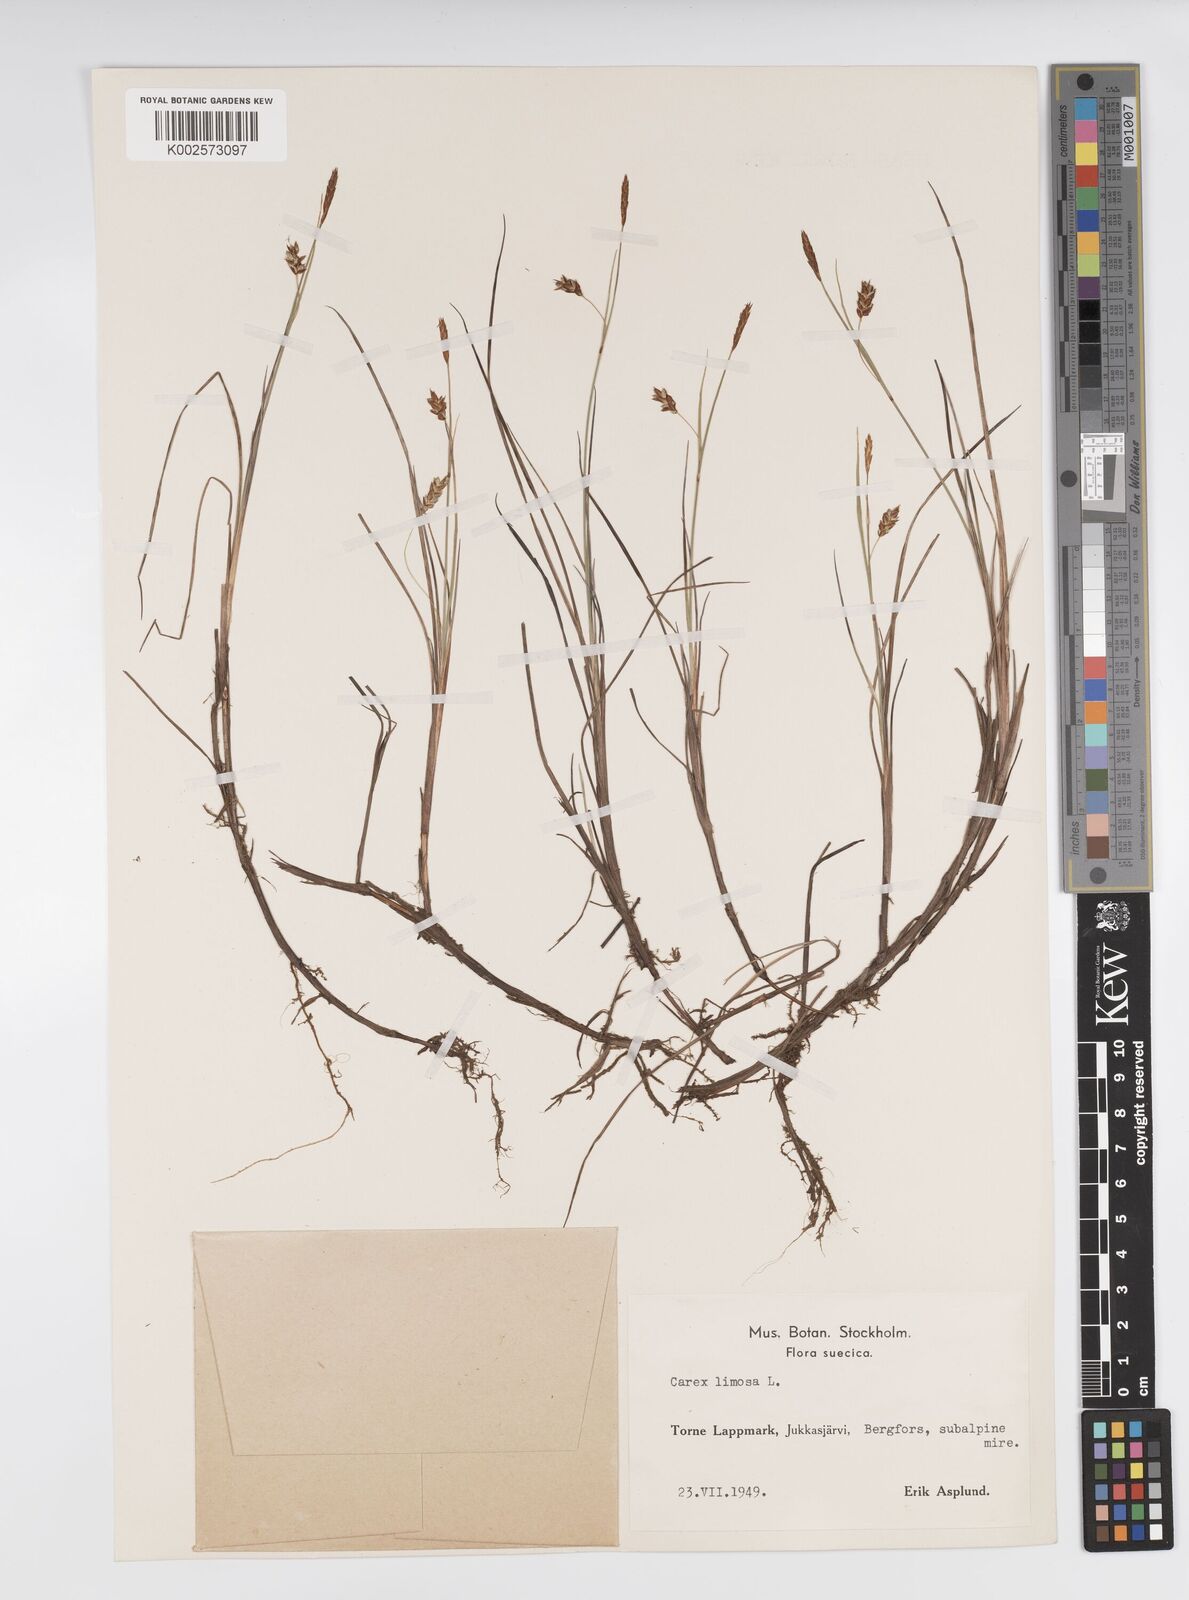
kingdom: Plantae
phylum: Tracheophyta
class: Liliopsida
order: Poales
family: Cyperaceae
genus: Carex
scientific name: Carex limosa
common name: Bog sedge
